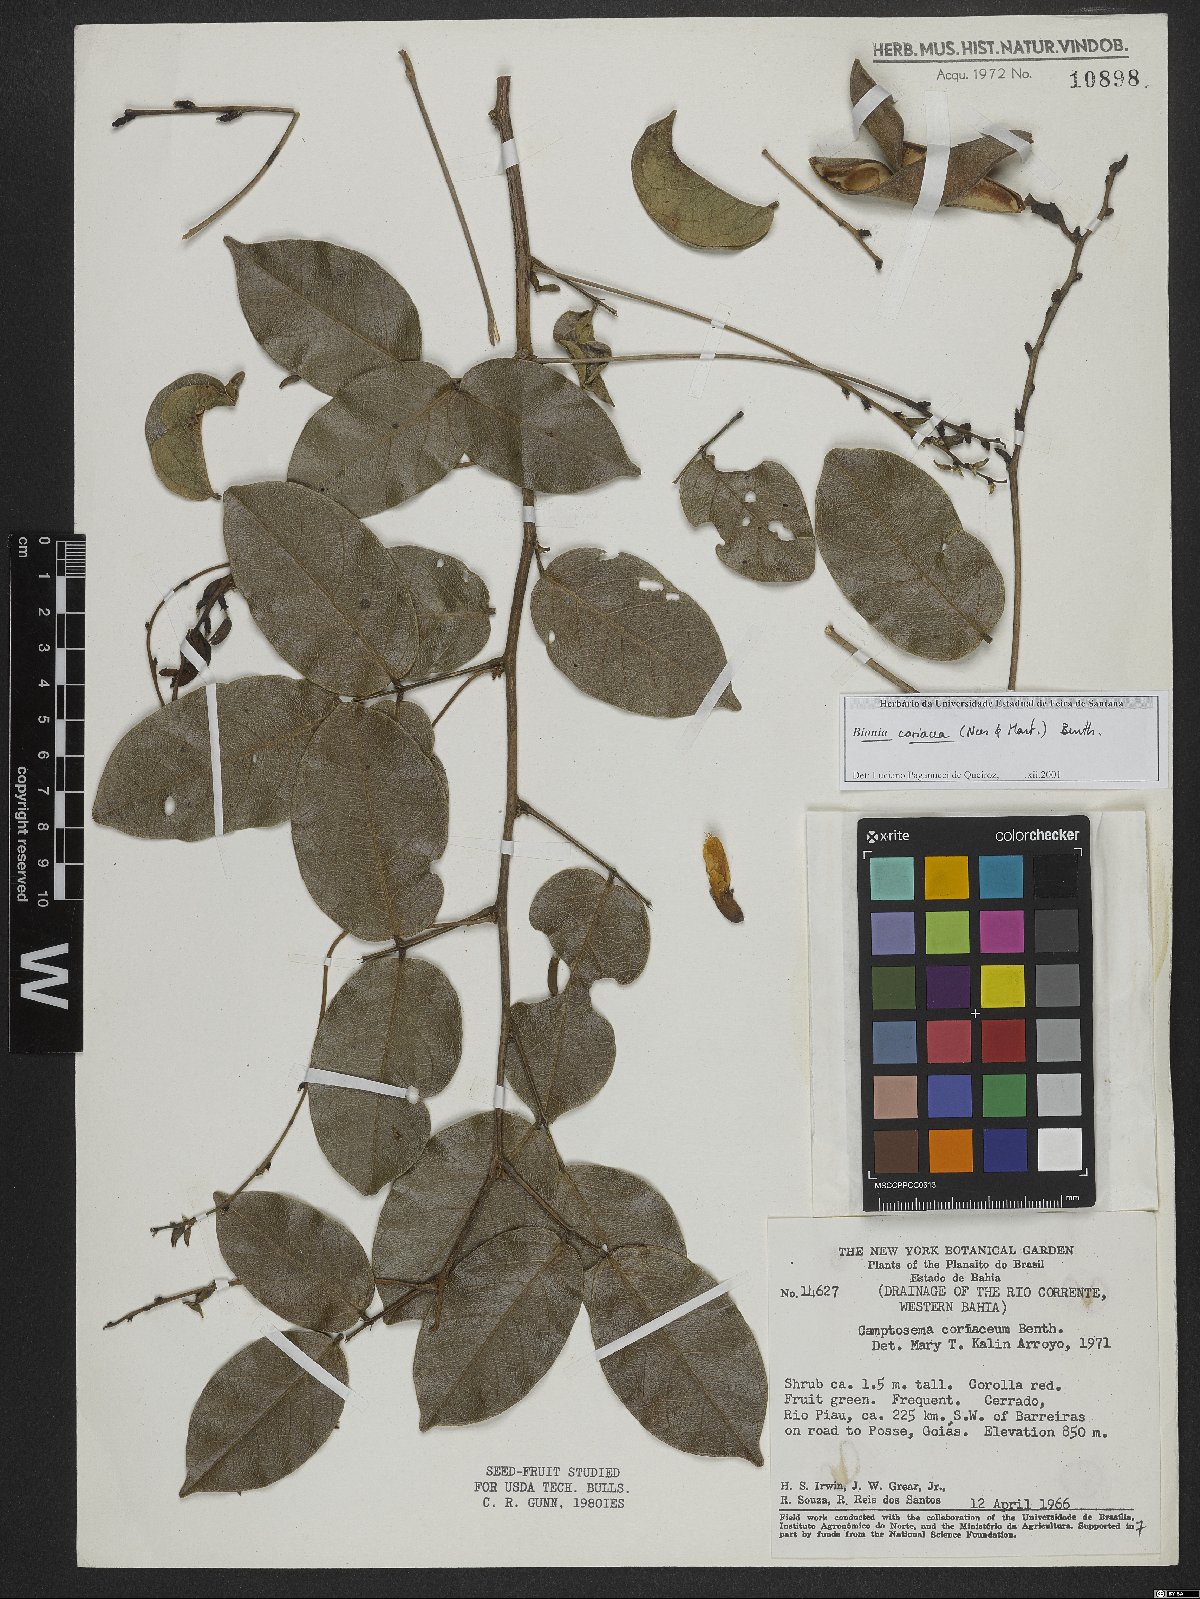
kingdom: Plantae
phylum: Tracheophyta
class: Magnoliopsida
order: Fabales
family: Fabaceae
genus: Camptosema
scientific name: Camptosema coriaceum
